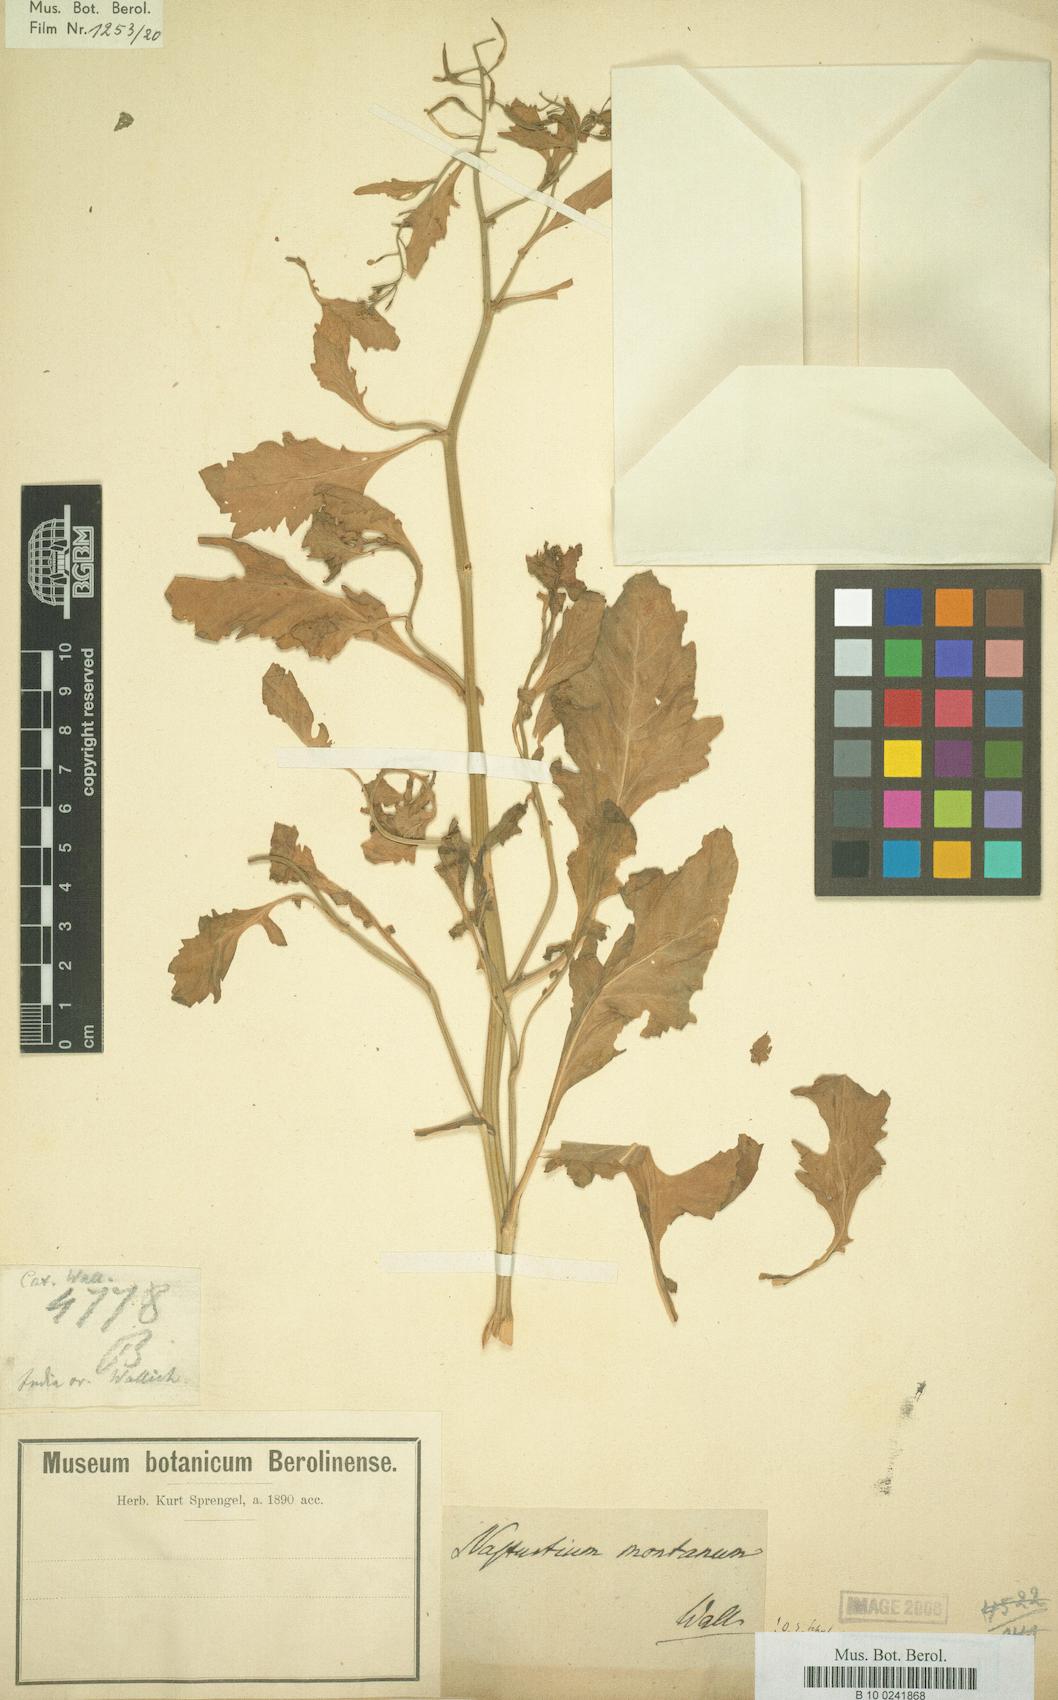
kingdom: Plantae
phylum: Tracheophyta
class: Magnoliopsida
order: Brassicales
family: Brassicaceae
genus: Lepidium
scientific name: Lepidium montanum
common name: Mountain pepperplant
